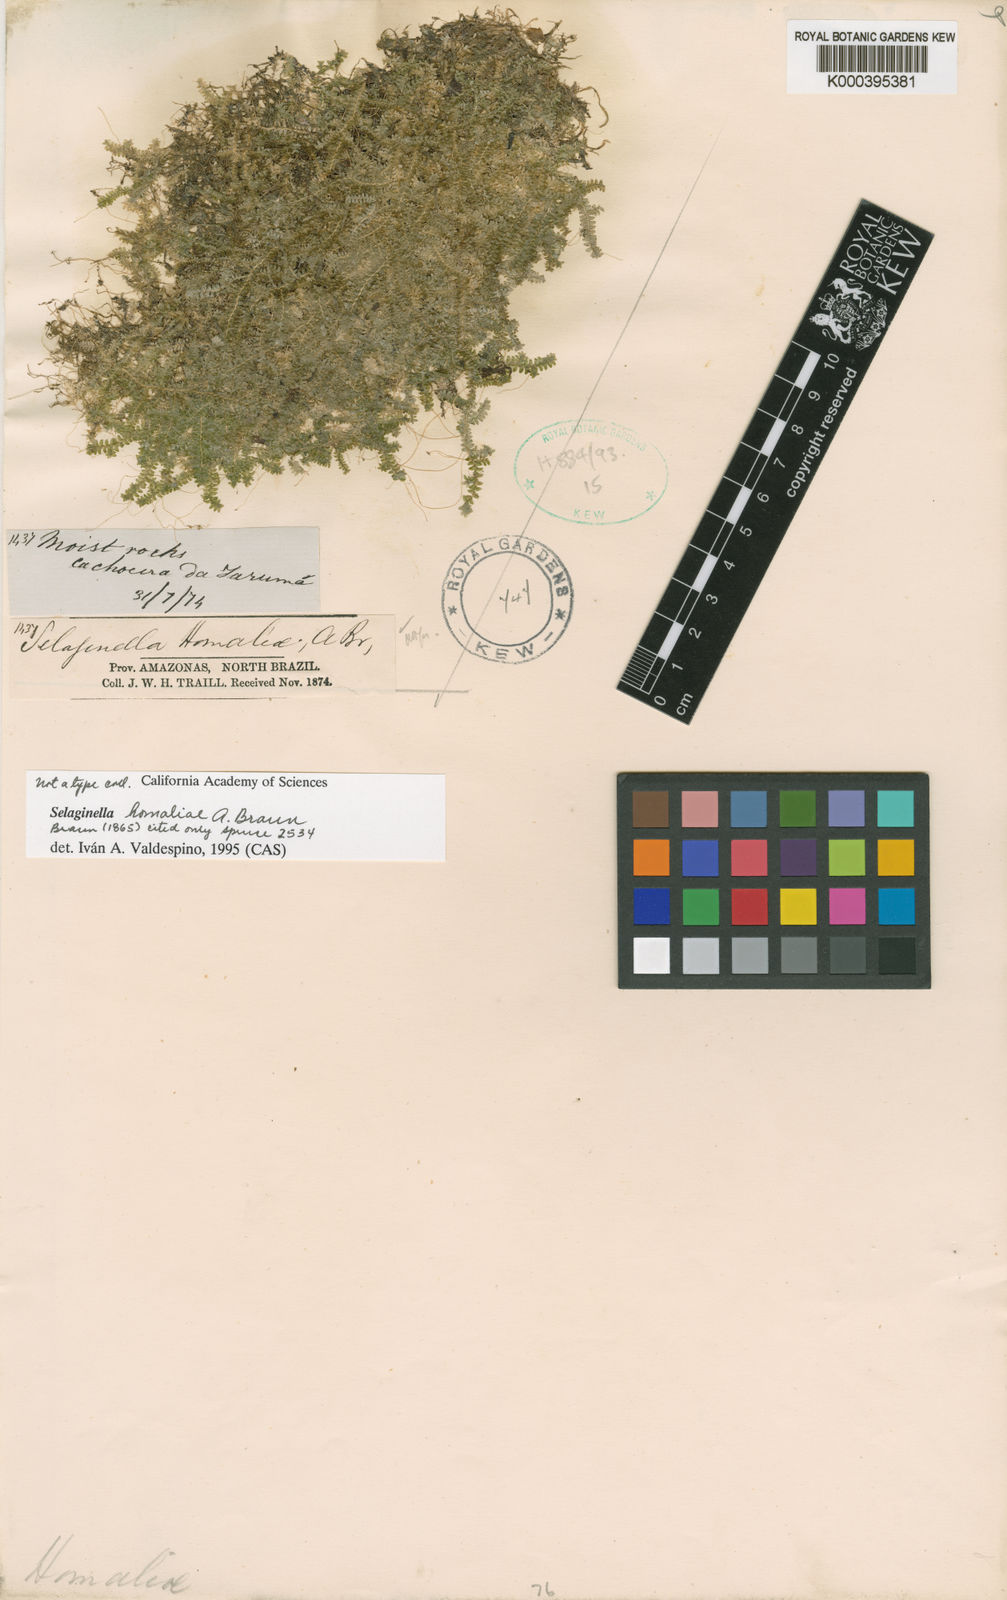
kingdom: Plantae
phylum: Tracheophyta
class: Lycopodiopsida
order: Selaginellales
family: Selaginellaceae
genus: Selaginella
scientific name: Selaginella homaliae
